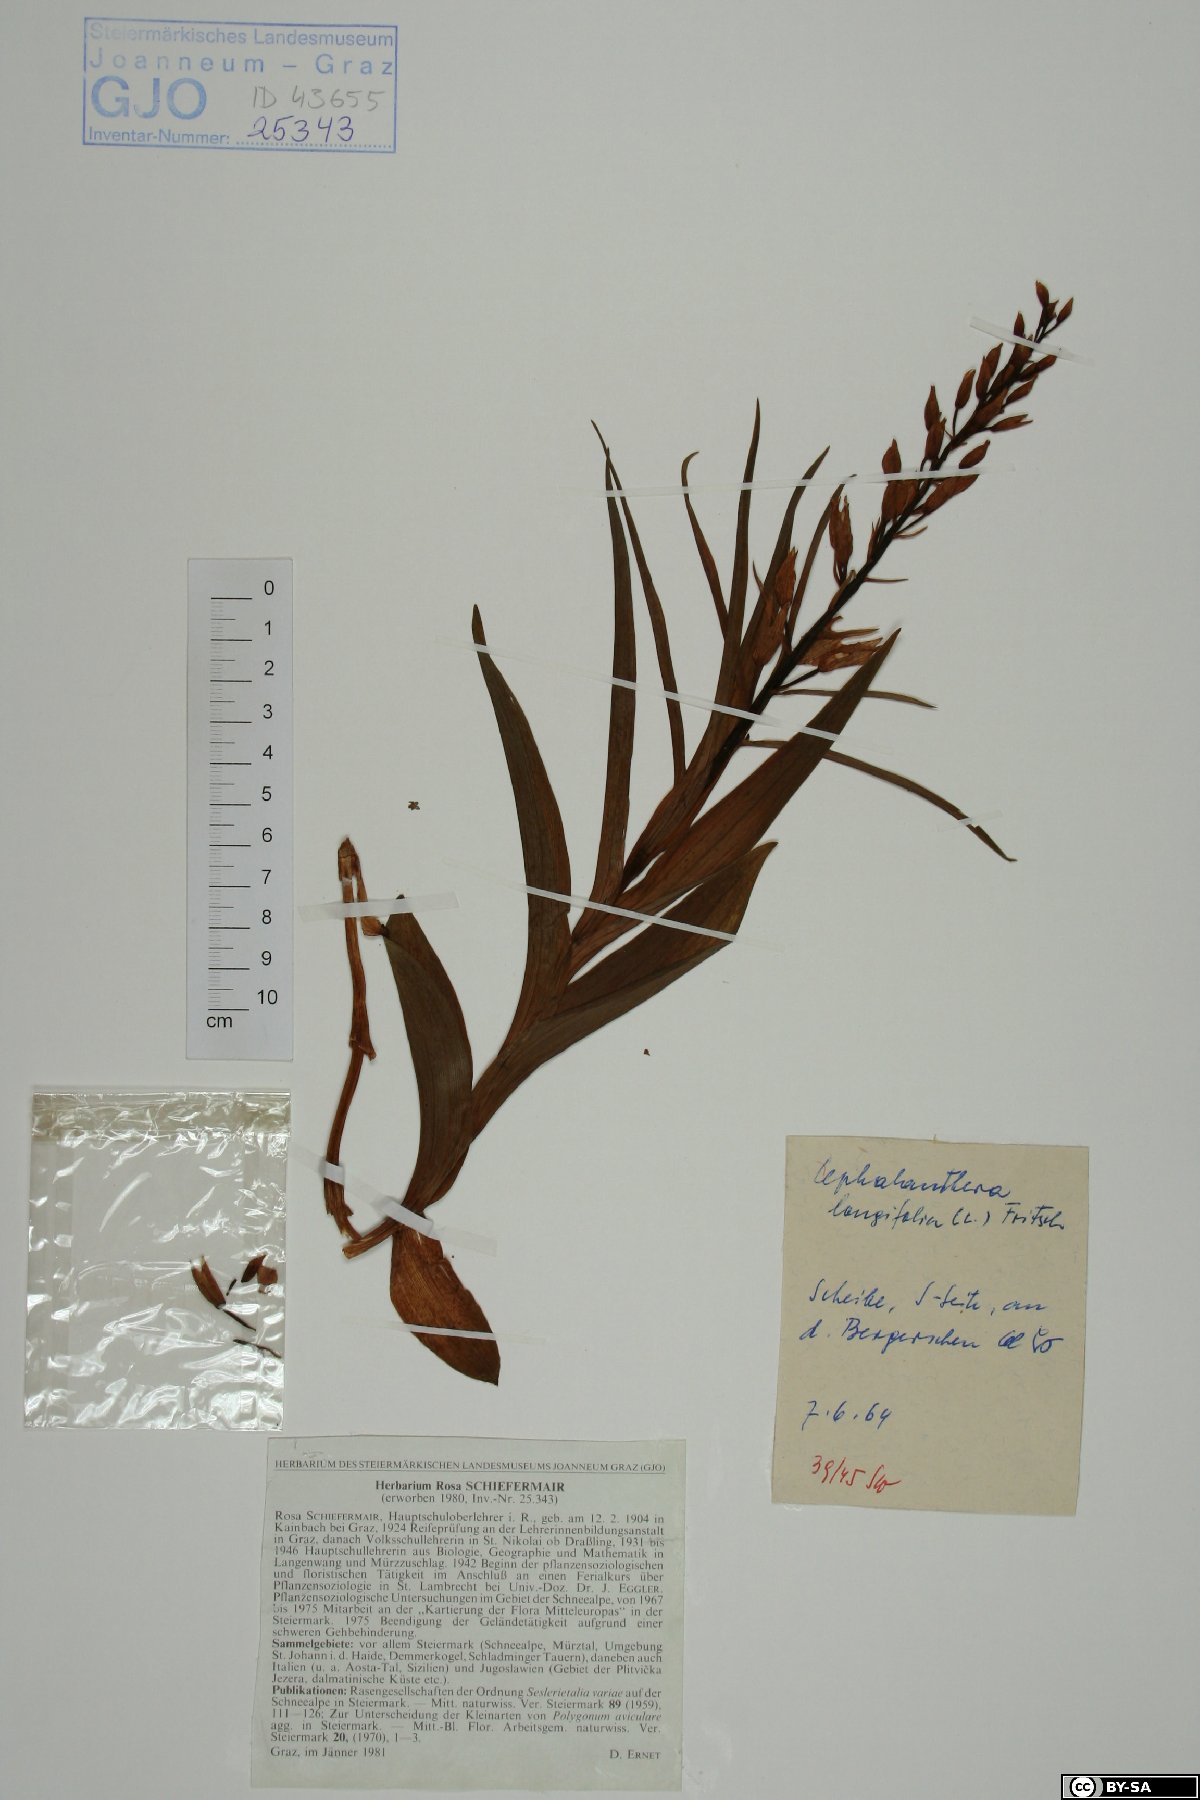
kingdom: Plantae
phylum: Tracheophyta
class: Liliopsida
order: Asparagales
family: Orchidaceae
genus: Cephalanthera
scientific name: Cephalanthera longifolia
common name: Narrow-leaved helleborine
